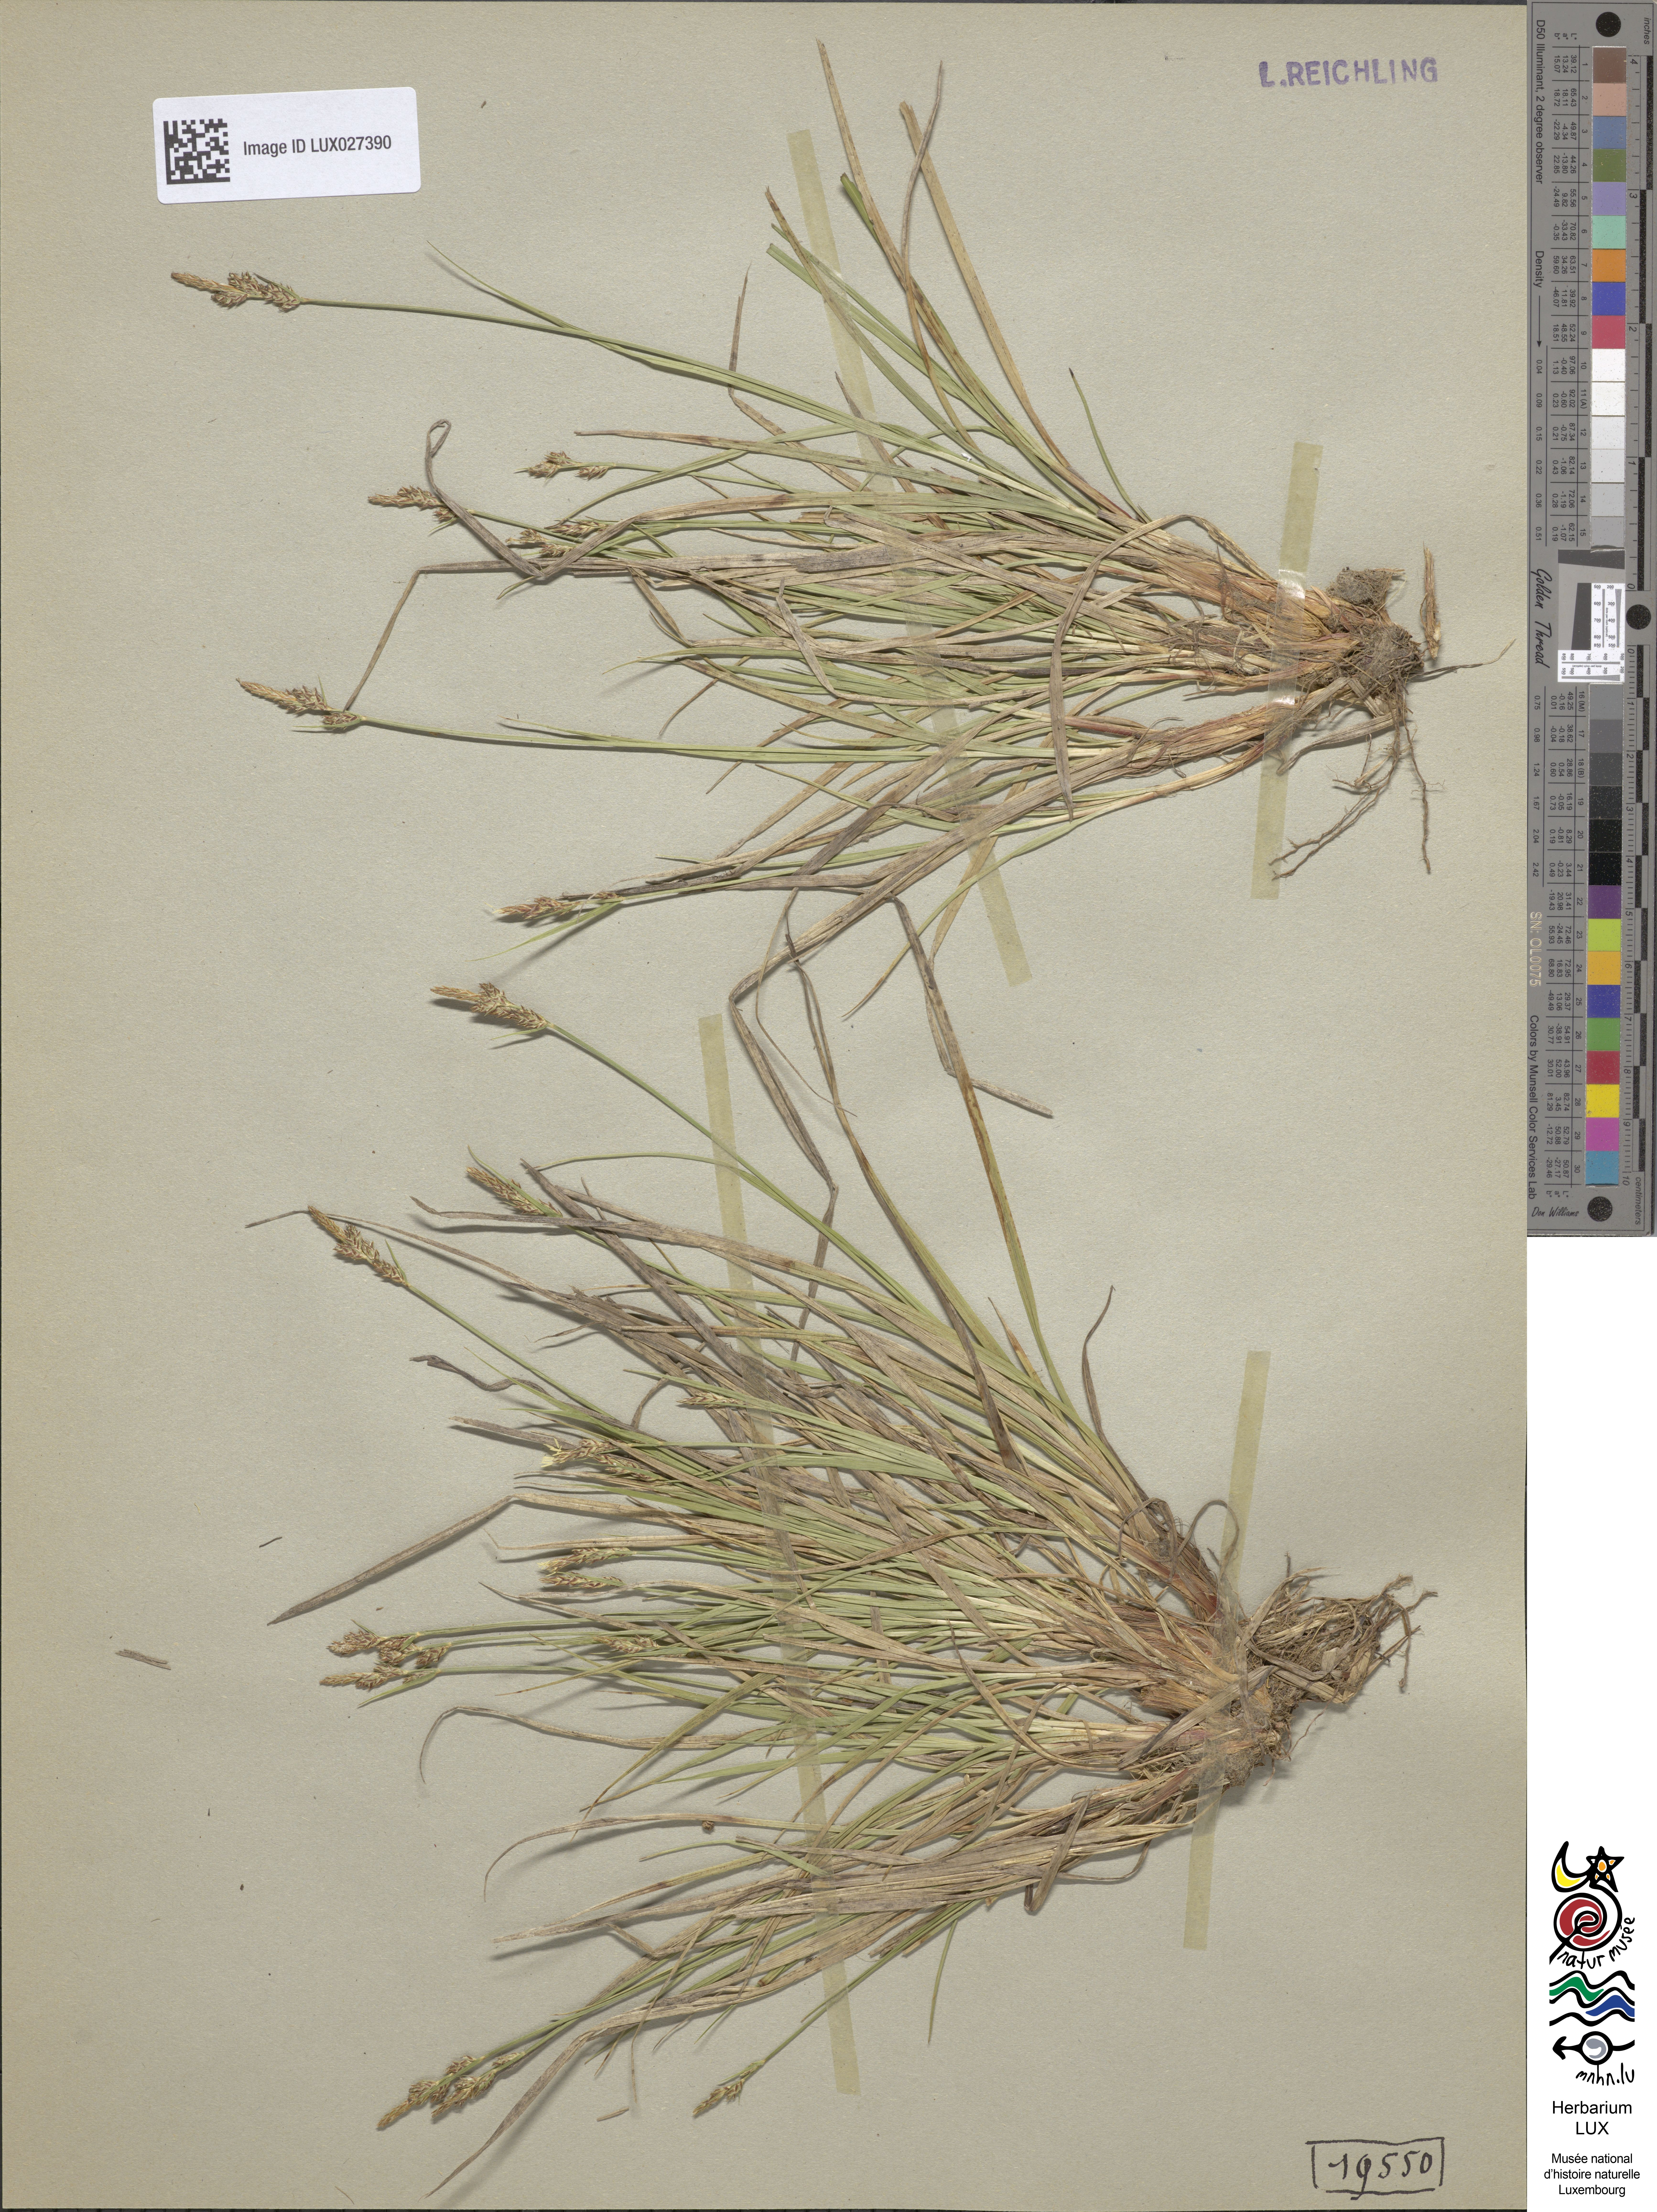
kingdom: Plantae
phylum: Tracheophyta
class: Liliopsida
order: Poales
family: Cyperaceae
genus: Carex
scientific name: Carex pilulifera
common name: Pill sedge
